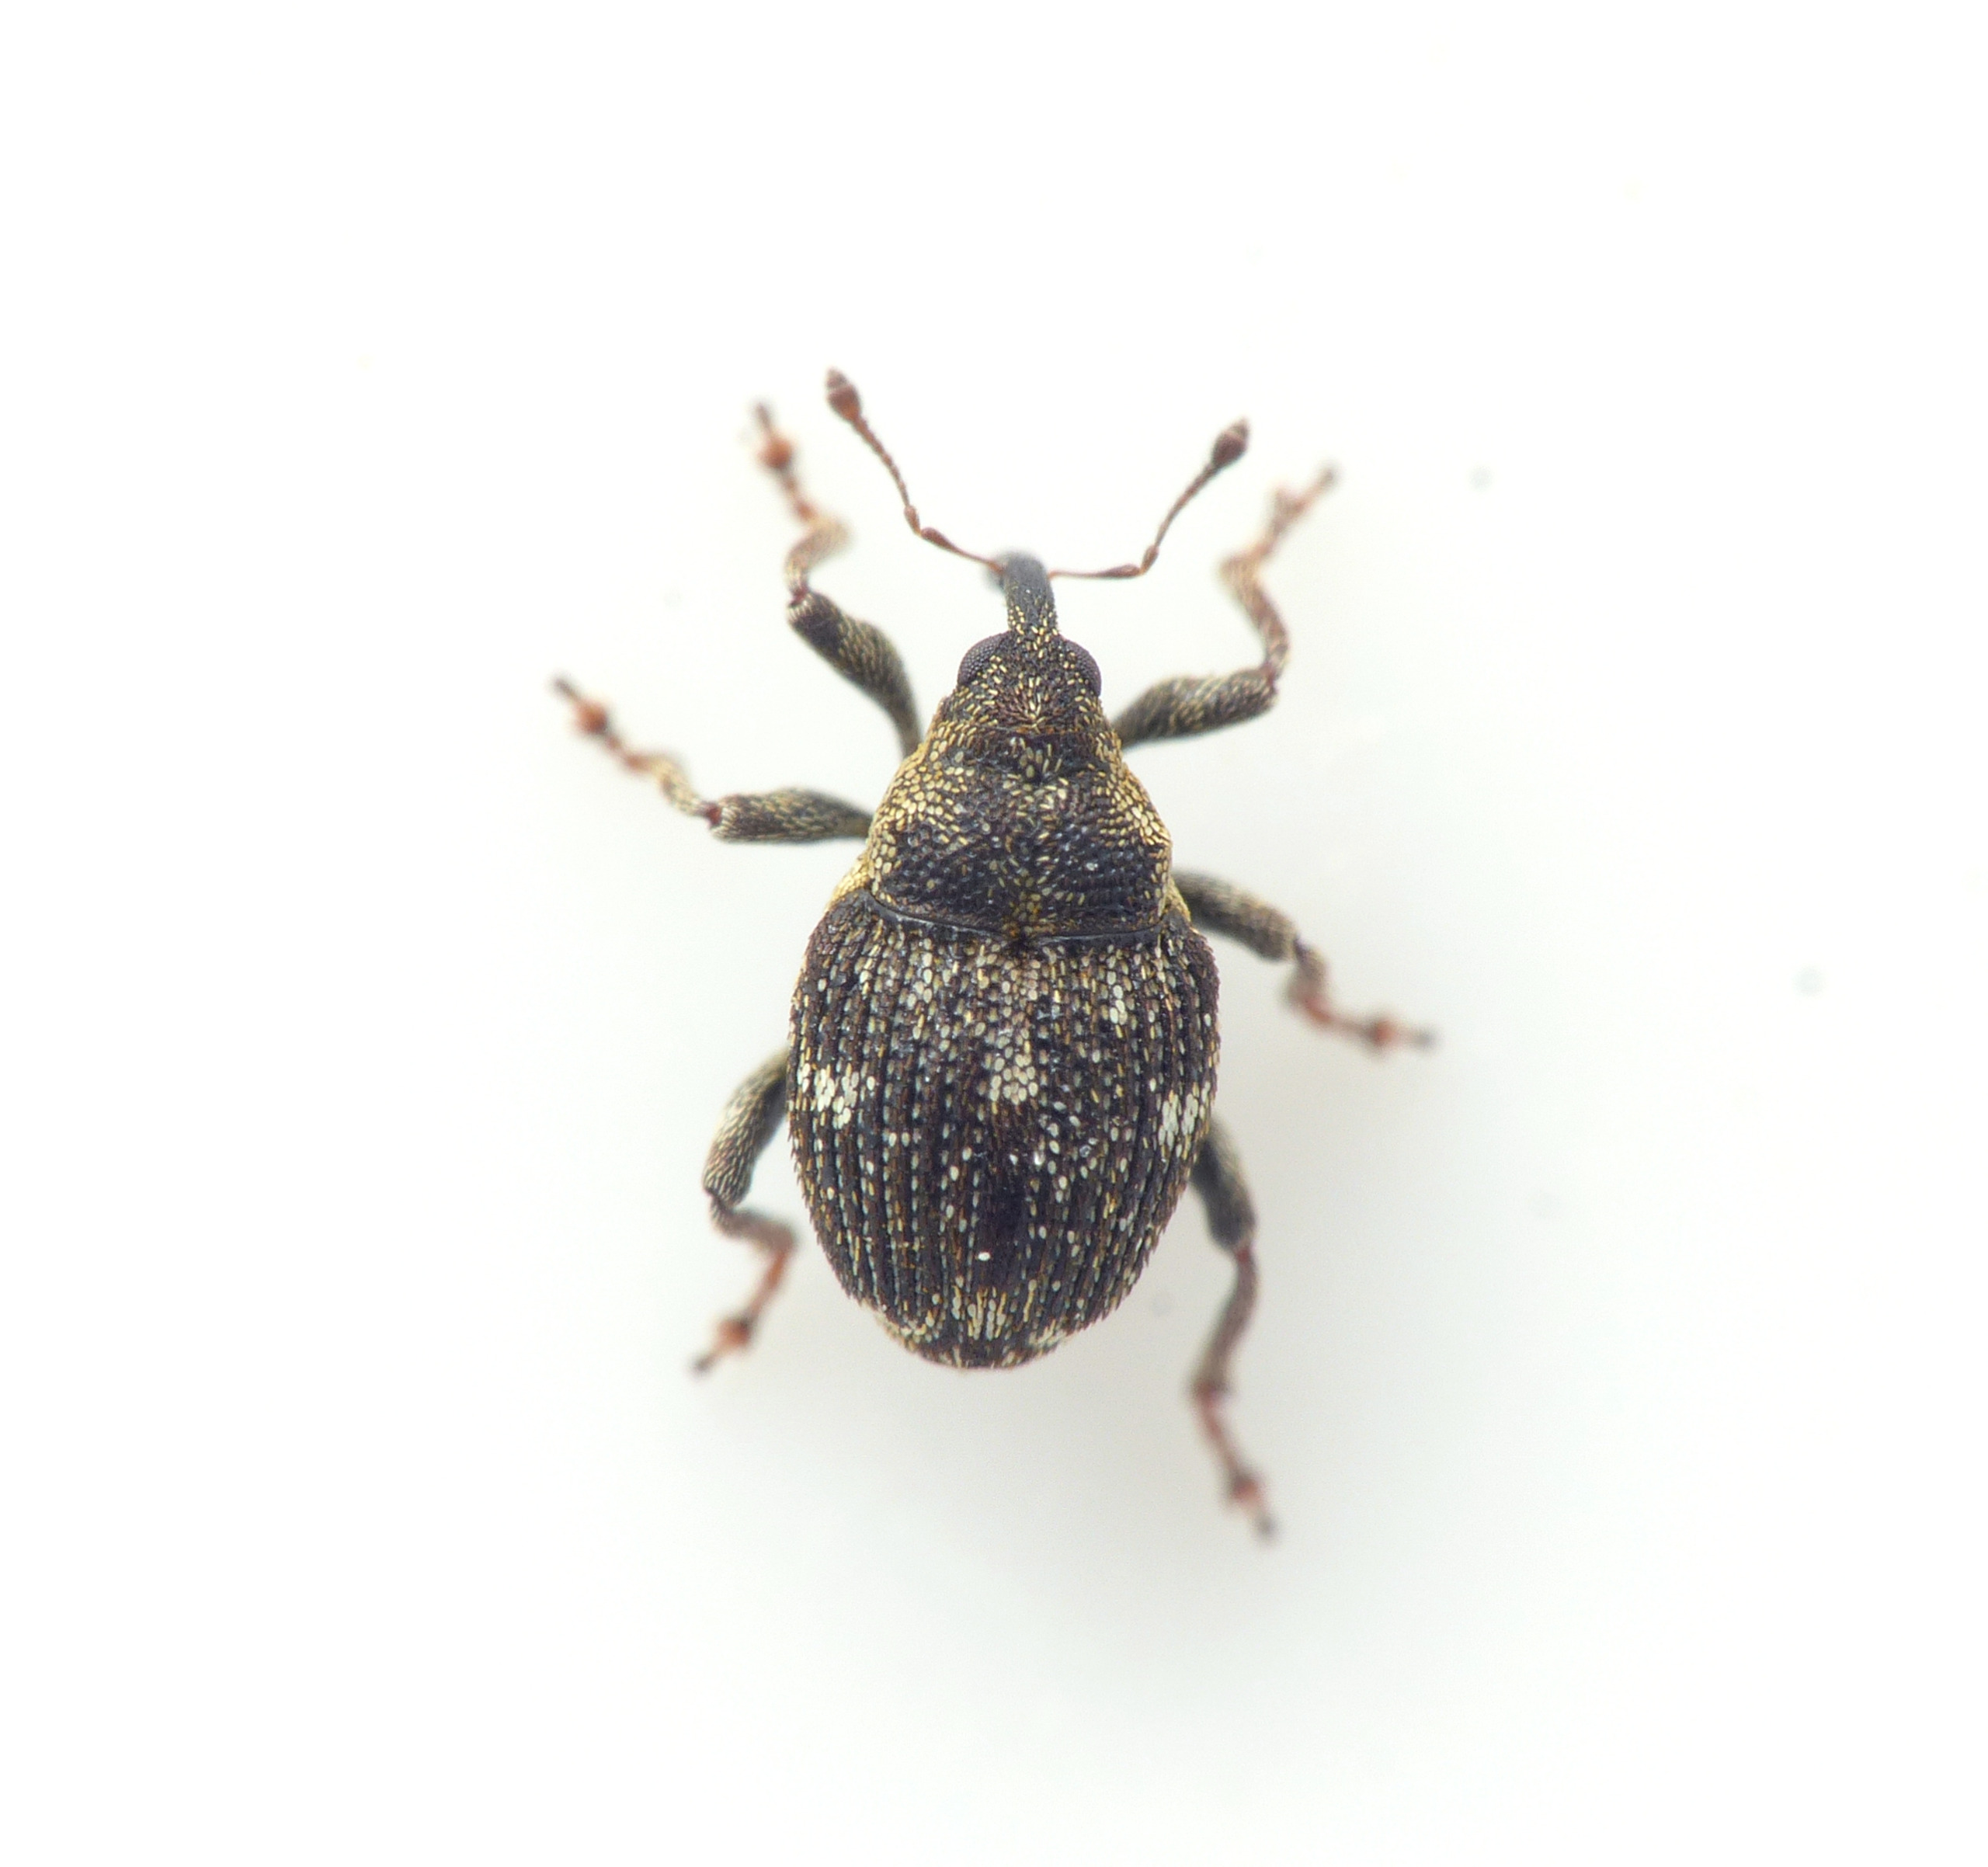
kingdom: Animalia
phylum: Arthropoda
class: Insecta
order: Coleoptera
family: Curculionidae
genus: Nedyus
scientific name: Nedyus quadrimaculatus
